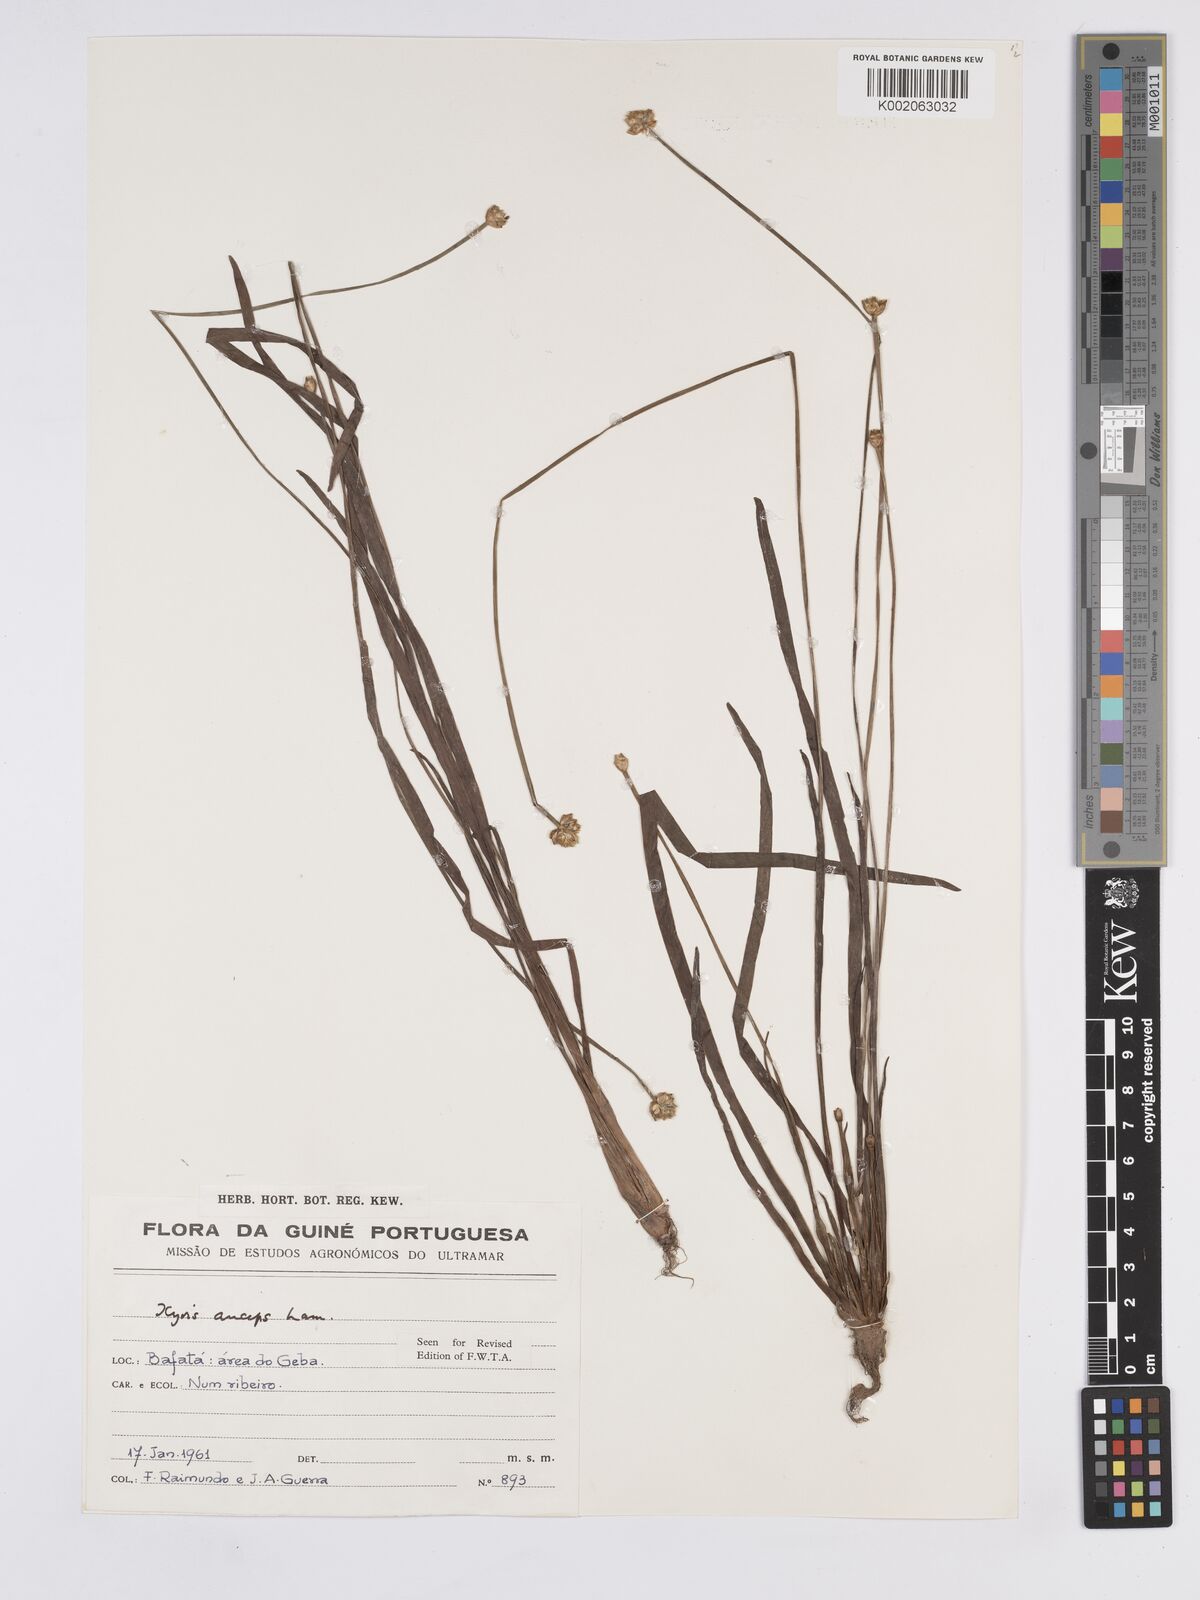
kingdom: Plantae
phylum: Tracheophyta
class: Liliopsida
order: Poales
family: Xyridaceae
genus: Xyris
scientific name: Xyris anceps
